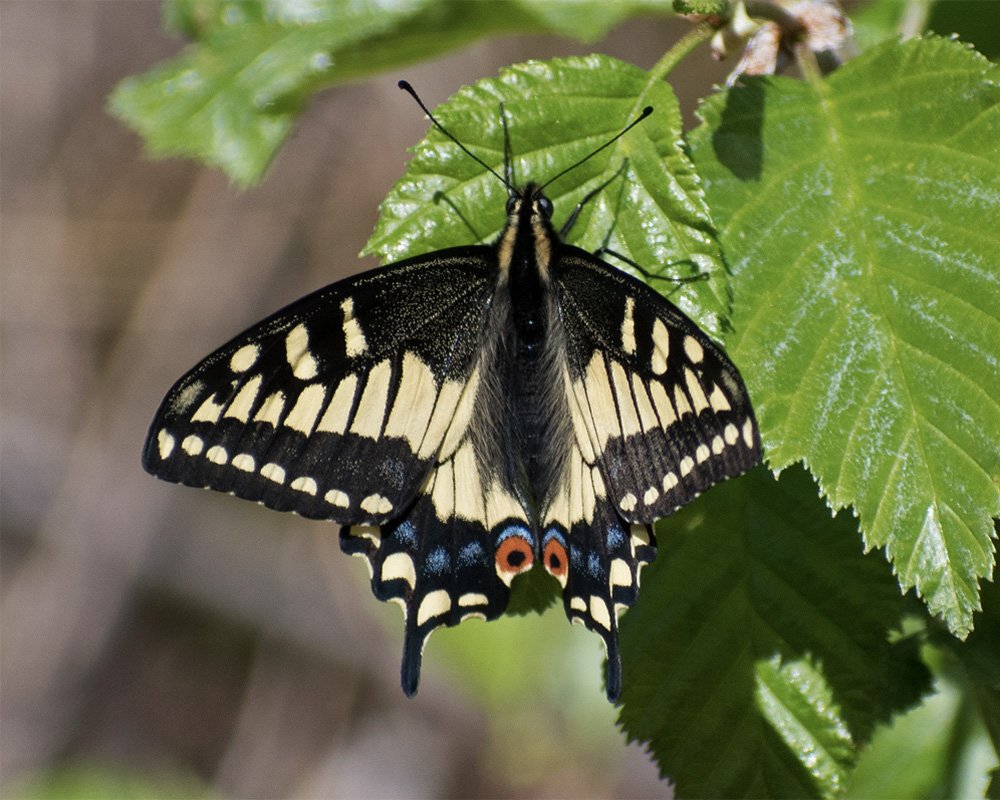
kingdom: Animalia
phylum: Arthropoda
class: Insecta
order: Lepidoptera
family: Papilionidae
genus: Papilio
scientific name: Papilio zelicaon
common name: Anise Swallowtail
